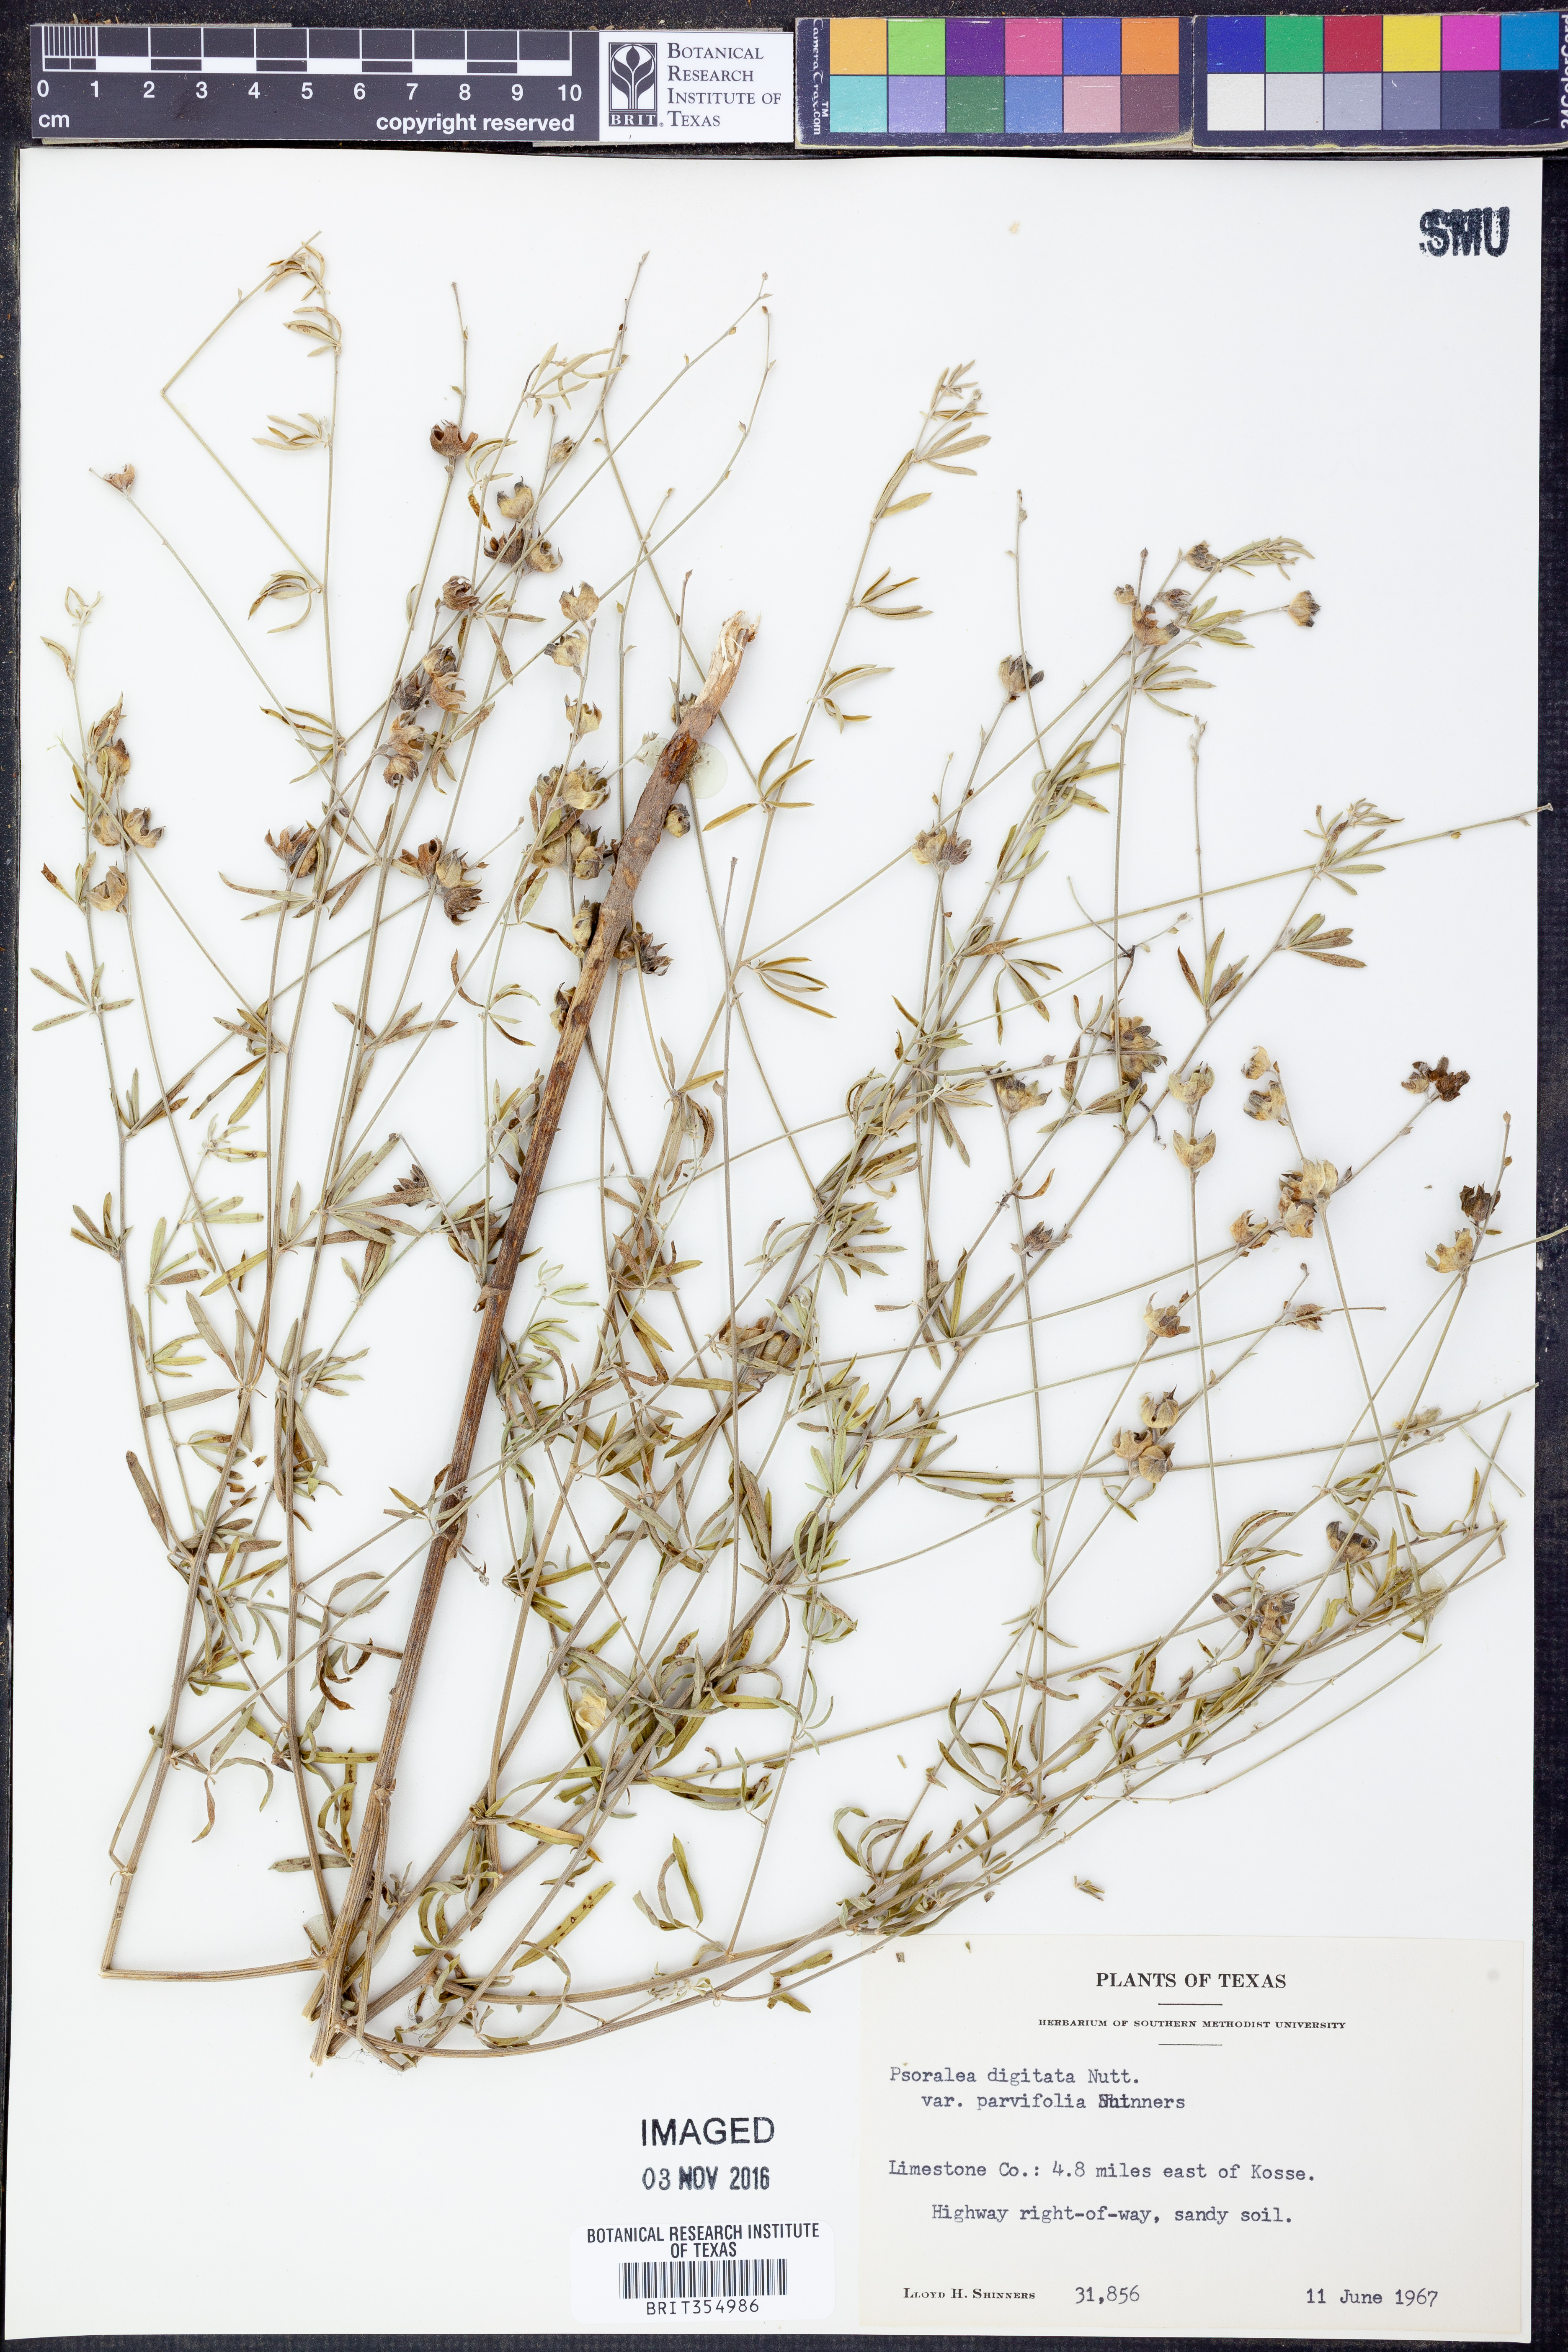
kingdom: Plantae
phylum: Tracheophyta
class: Magnoliopsida
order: Fabales
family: Fabaceae
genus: Pediomelum
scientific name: Pediomelum digitatum
